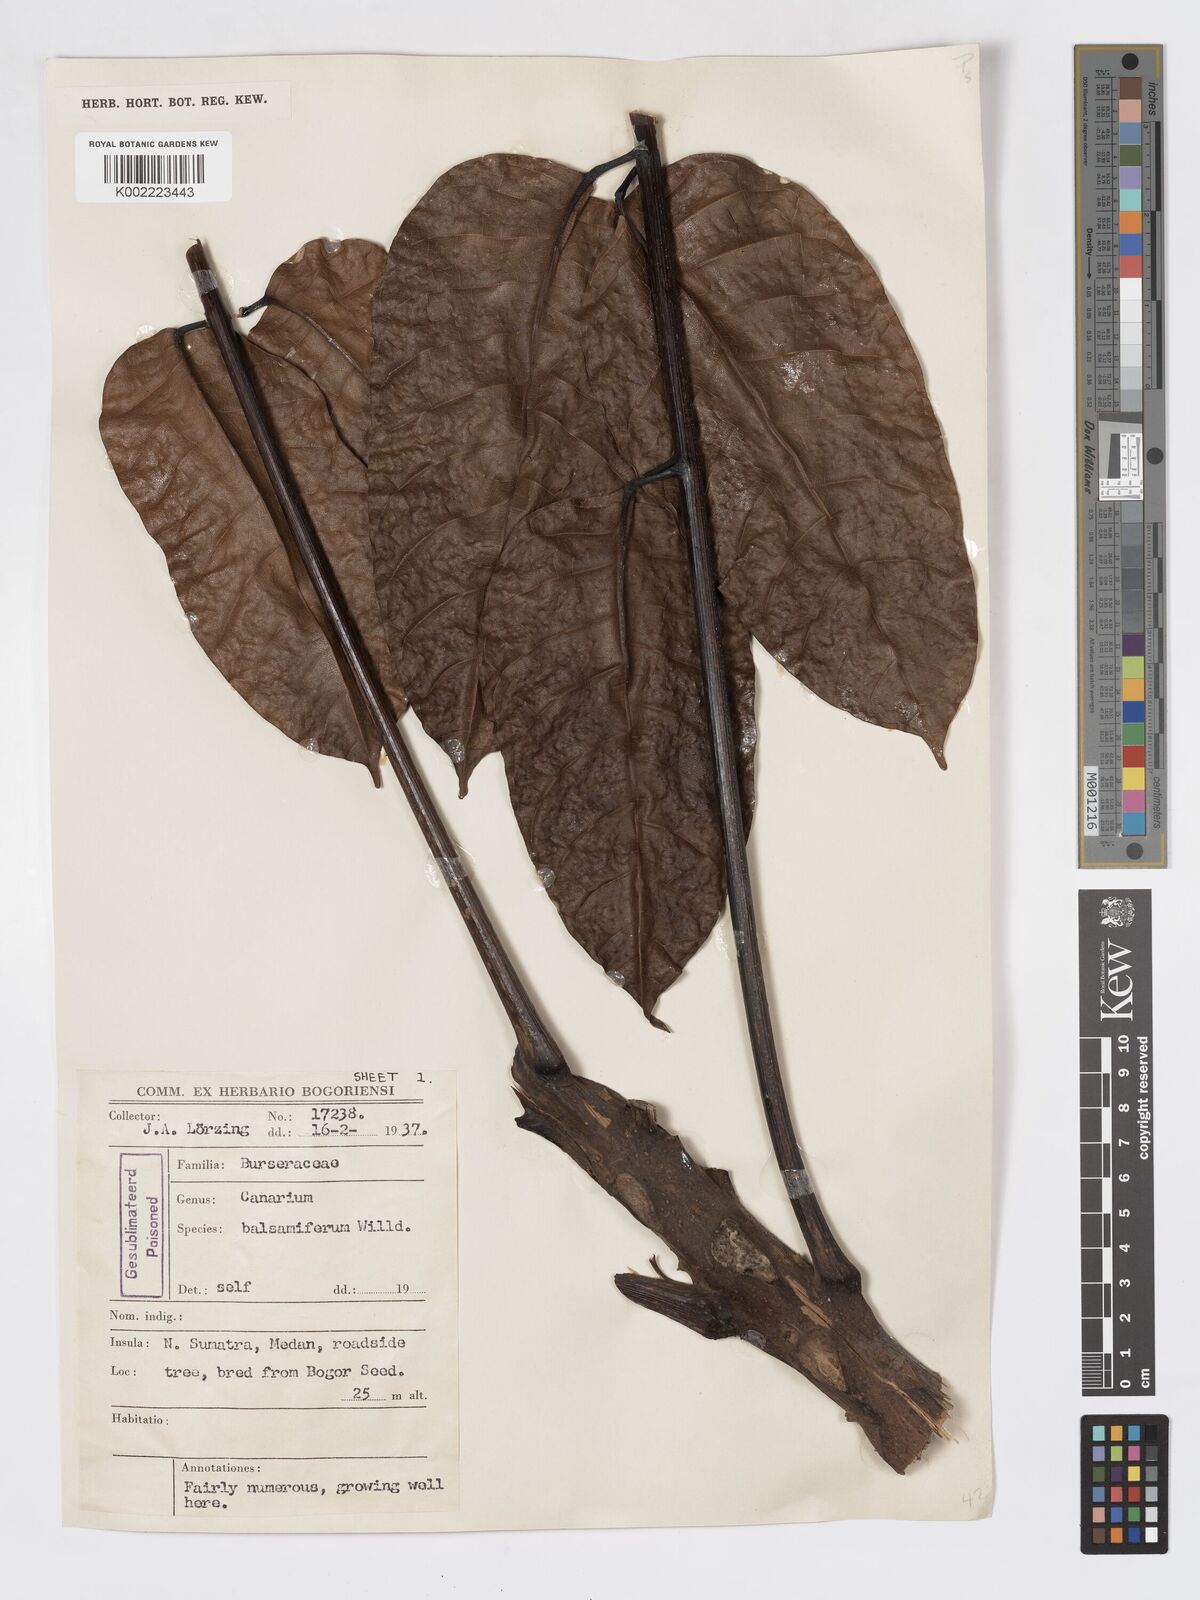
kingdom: Plantae
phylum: Tracheophyta
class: Magnoliopsida
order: Sapindales
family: Burseraceae
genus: Canarium
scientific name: Canarium
